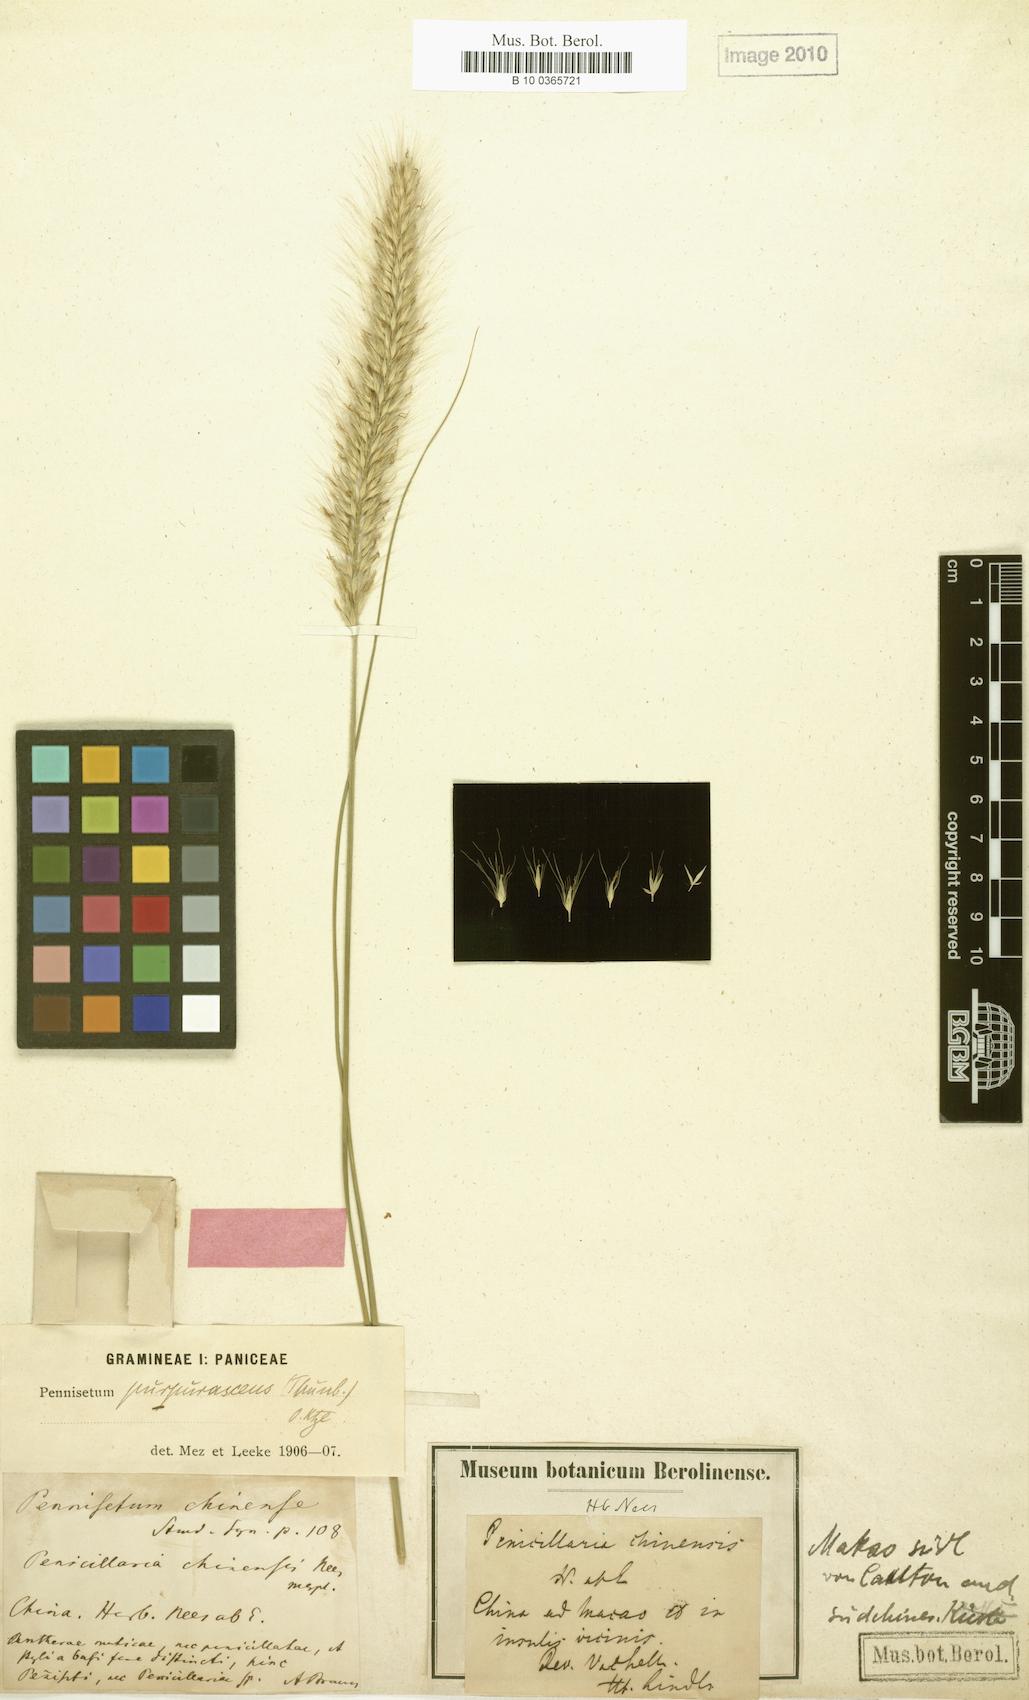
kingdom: Plantae
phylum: Tracheophyta
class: Liliopsida
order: Poales
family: Poaceae
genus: Cenchrus
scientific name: Cenchrus alopecuroides
